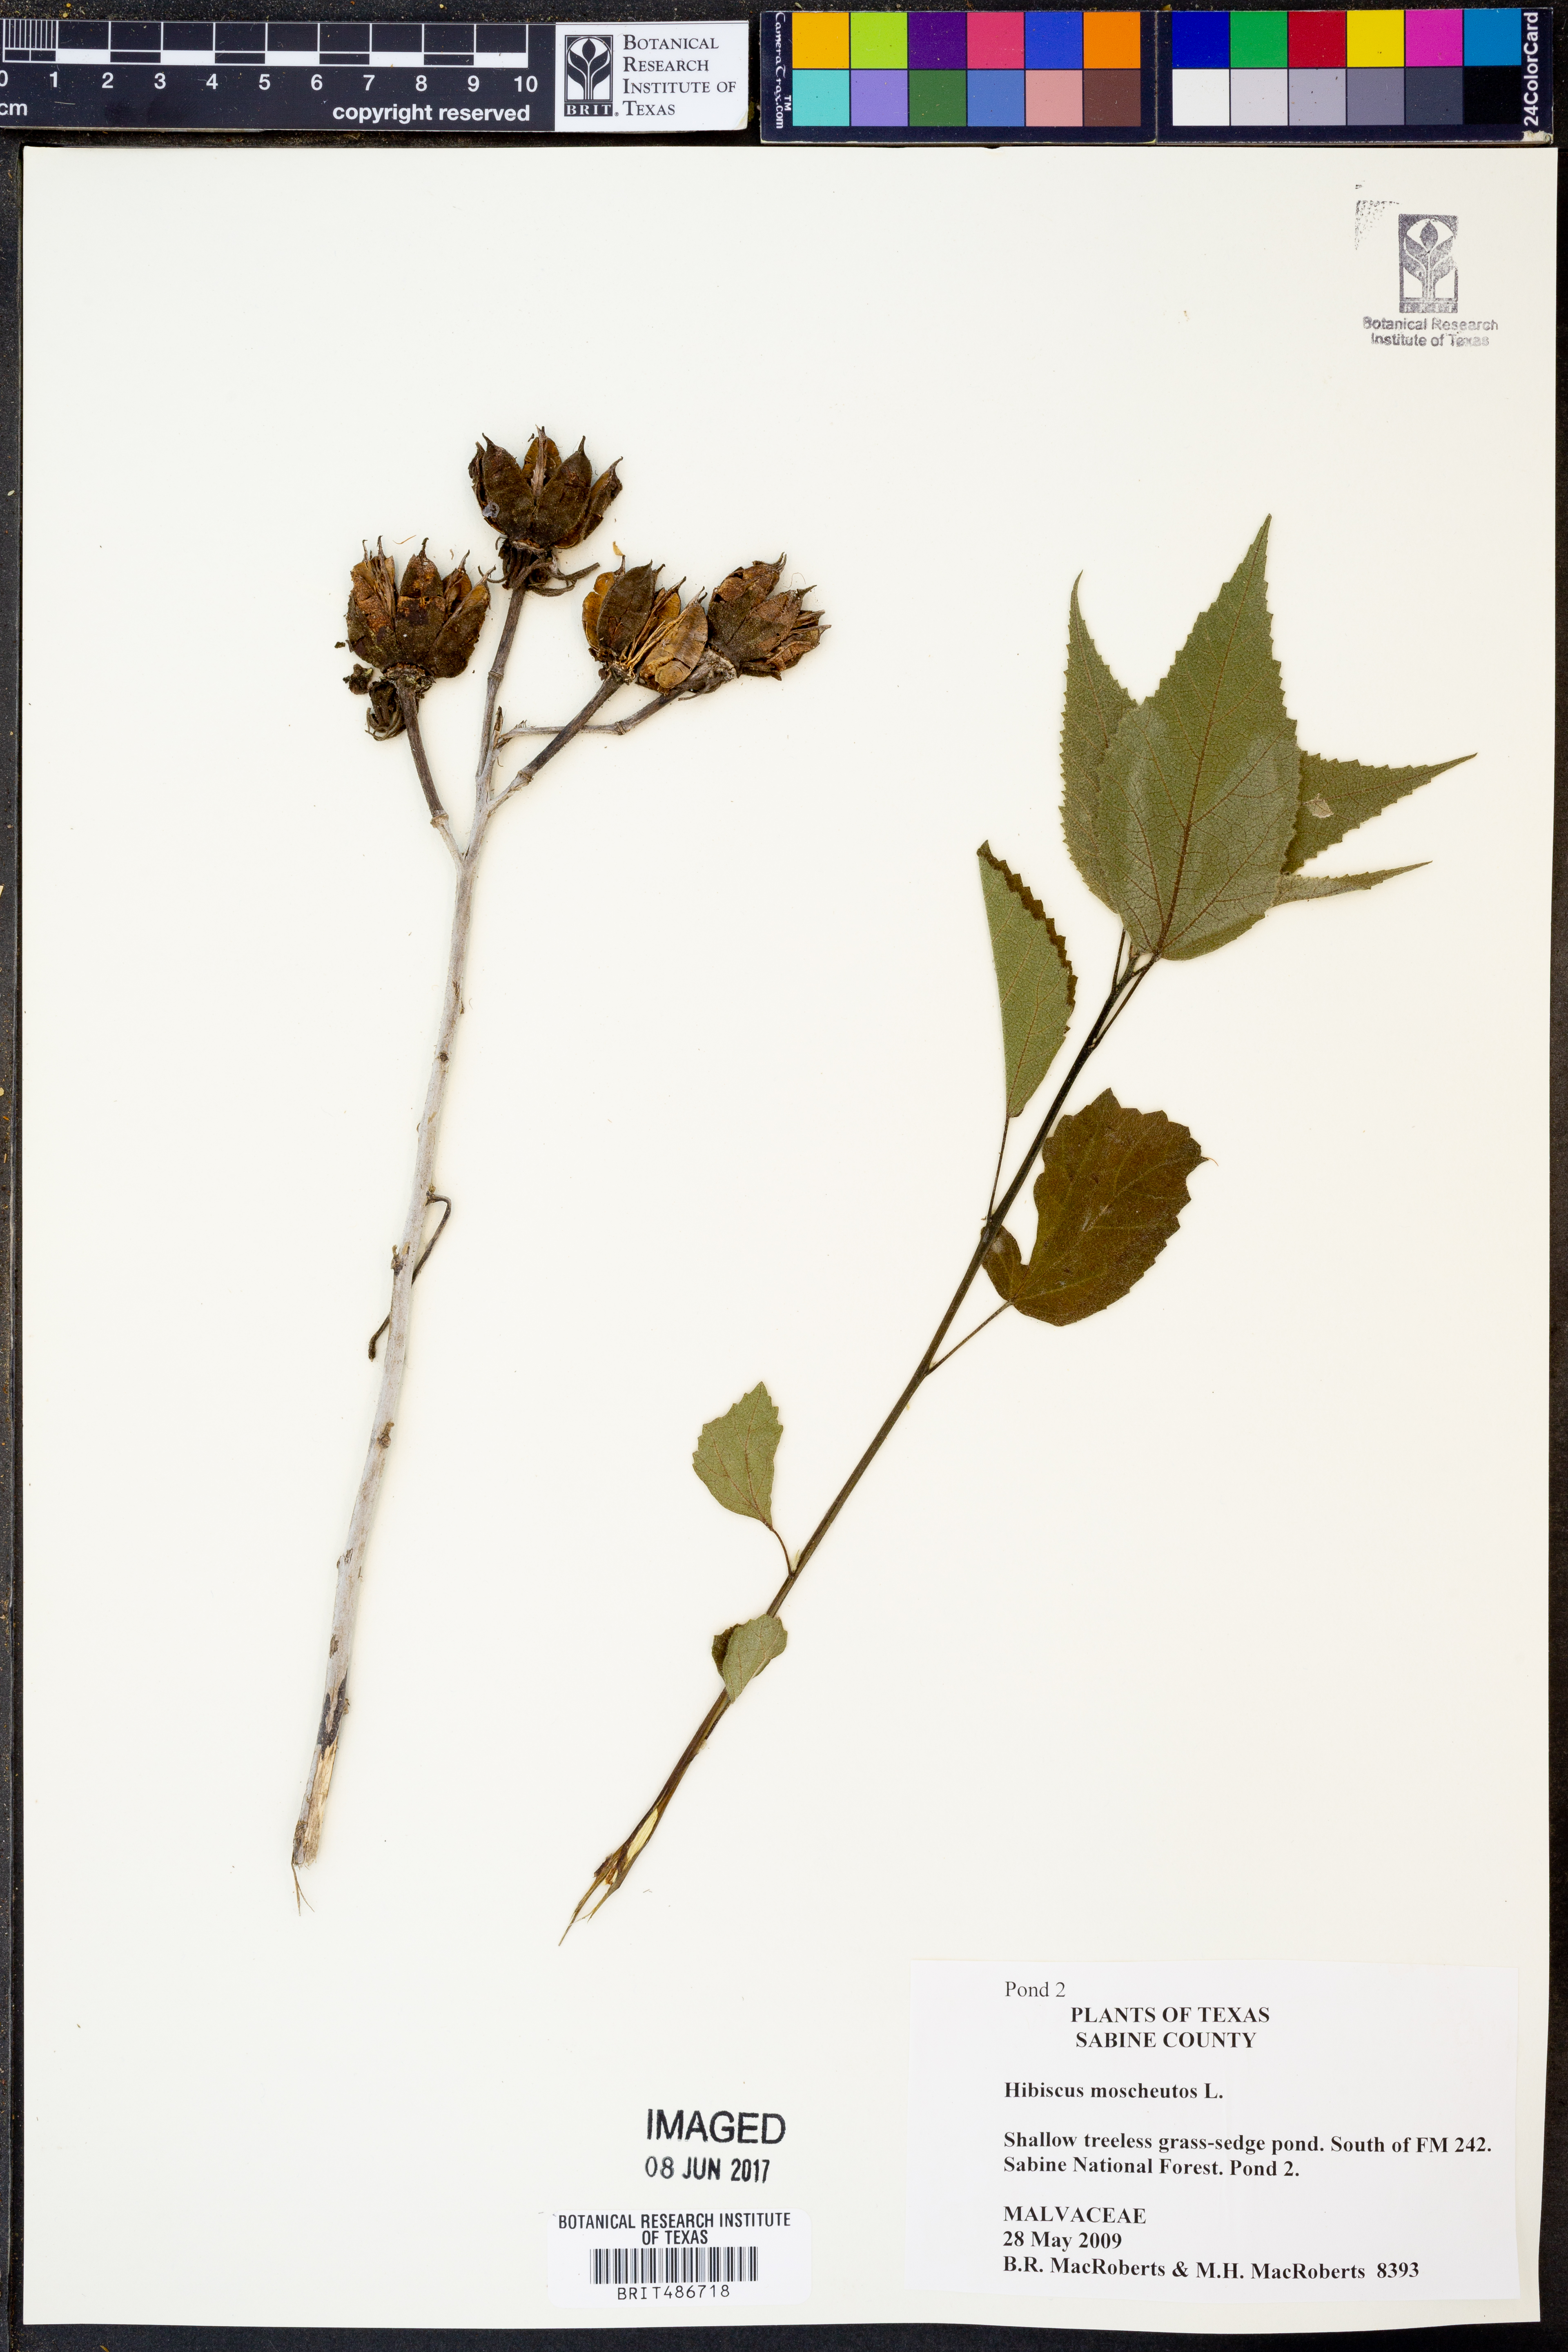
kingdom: Plantae
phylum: Tracheophyta
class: Magnoliopsida
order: Malvales
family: Malvaceae
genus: Hibiscus
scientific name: Hibiscus moscheutos
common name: Common rose-mallow
